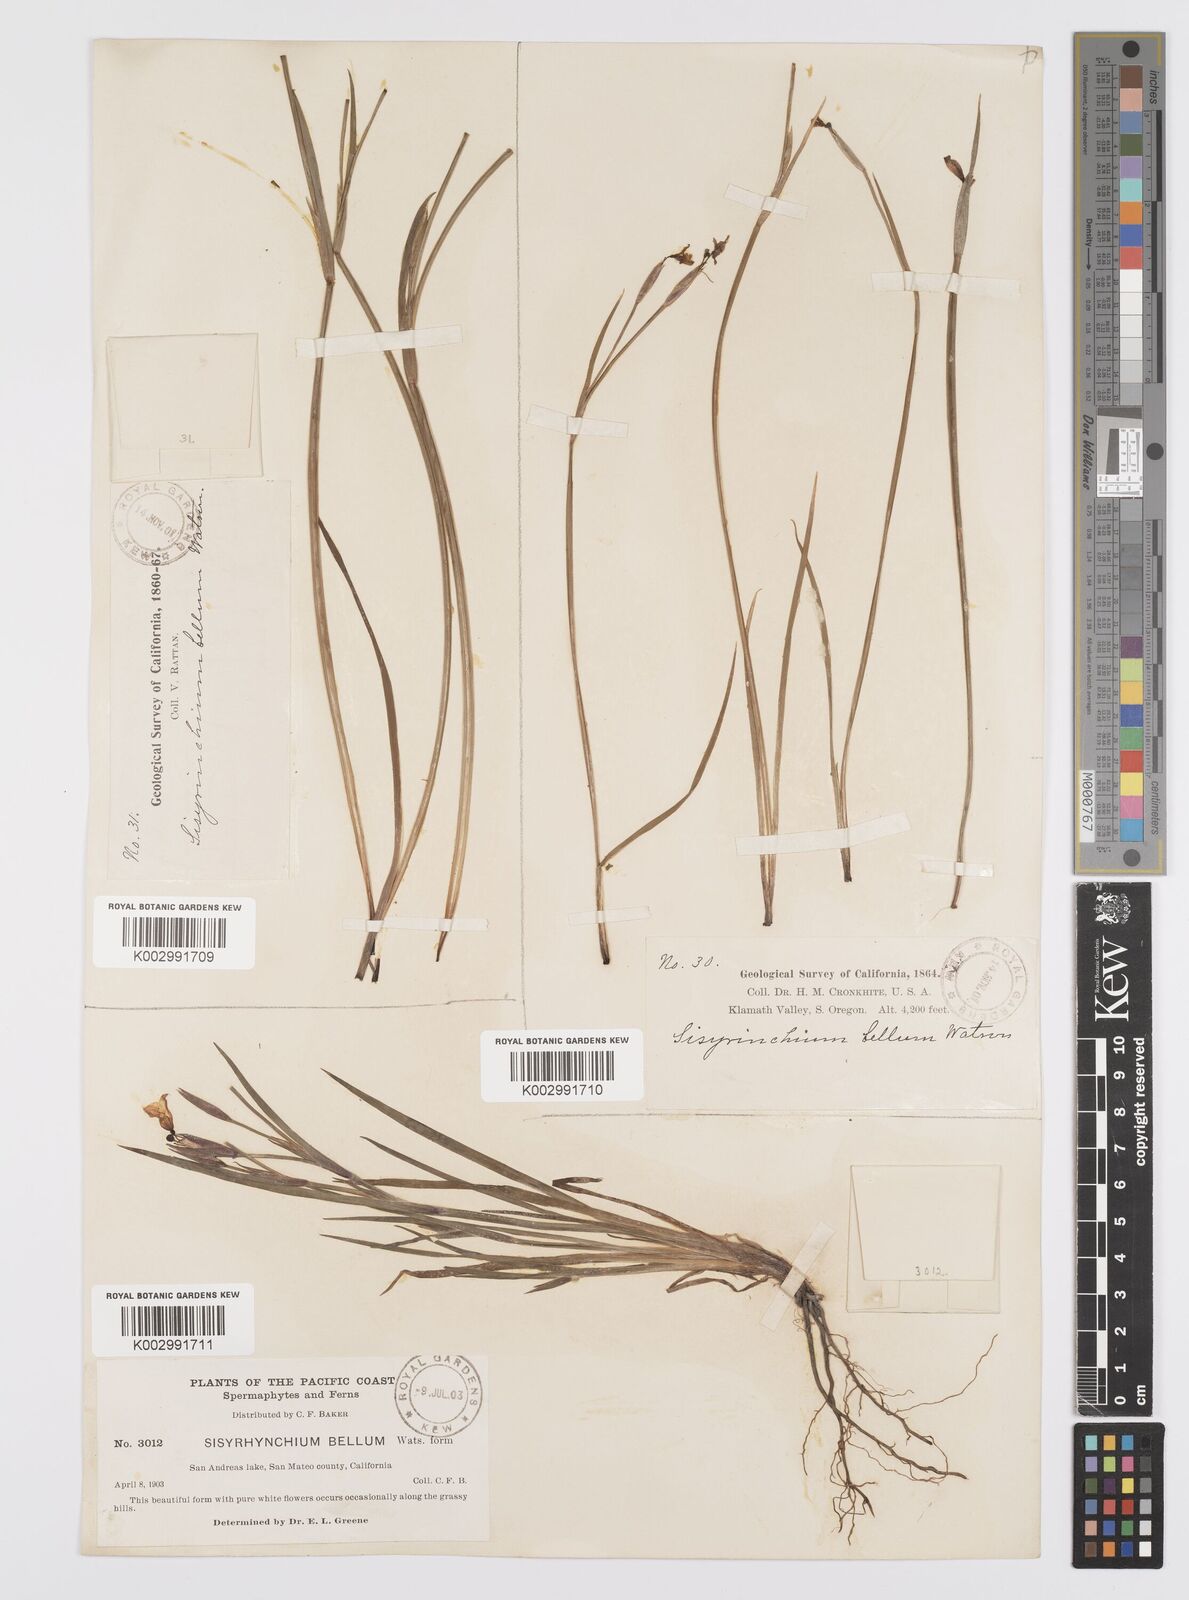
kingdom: Plantae
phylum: Tracheophyta
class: Liliopsida
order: Asparagales
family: Iridaceae
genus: Sisyrinchium
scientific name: Sisyrinchium bellum
